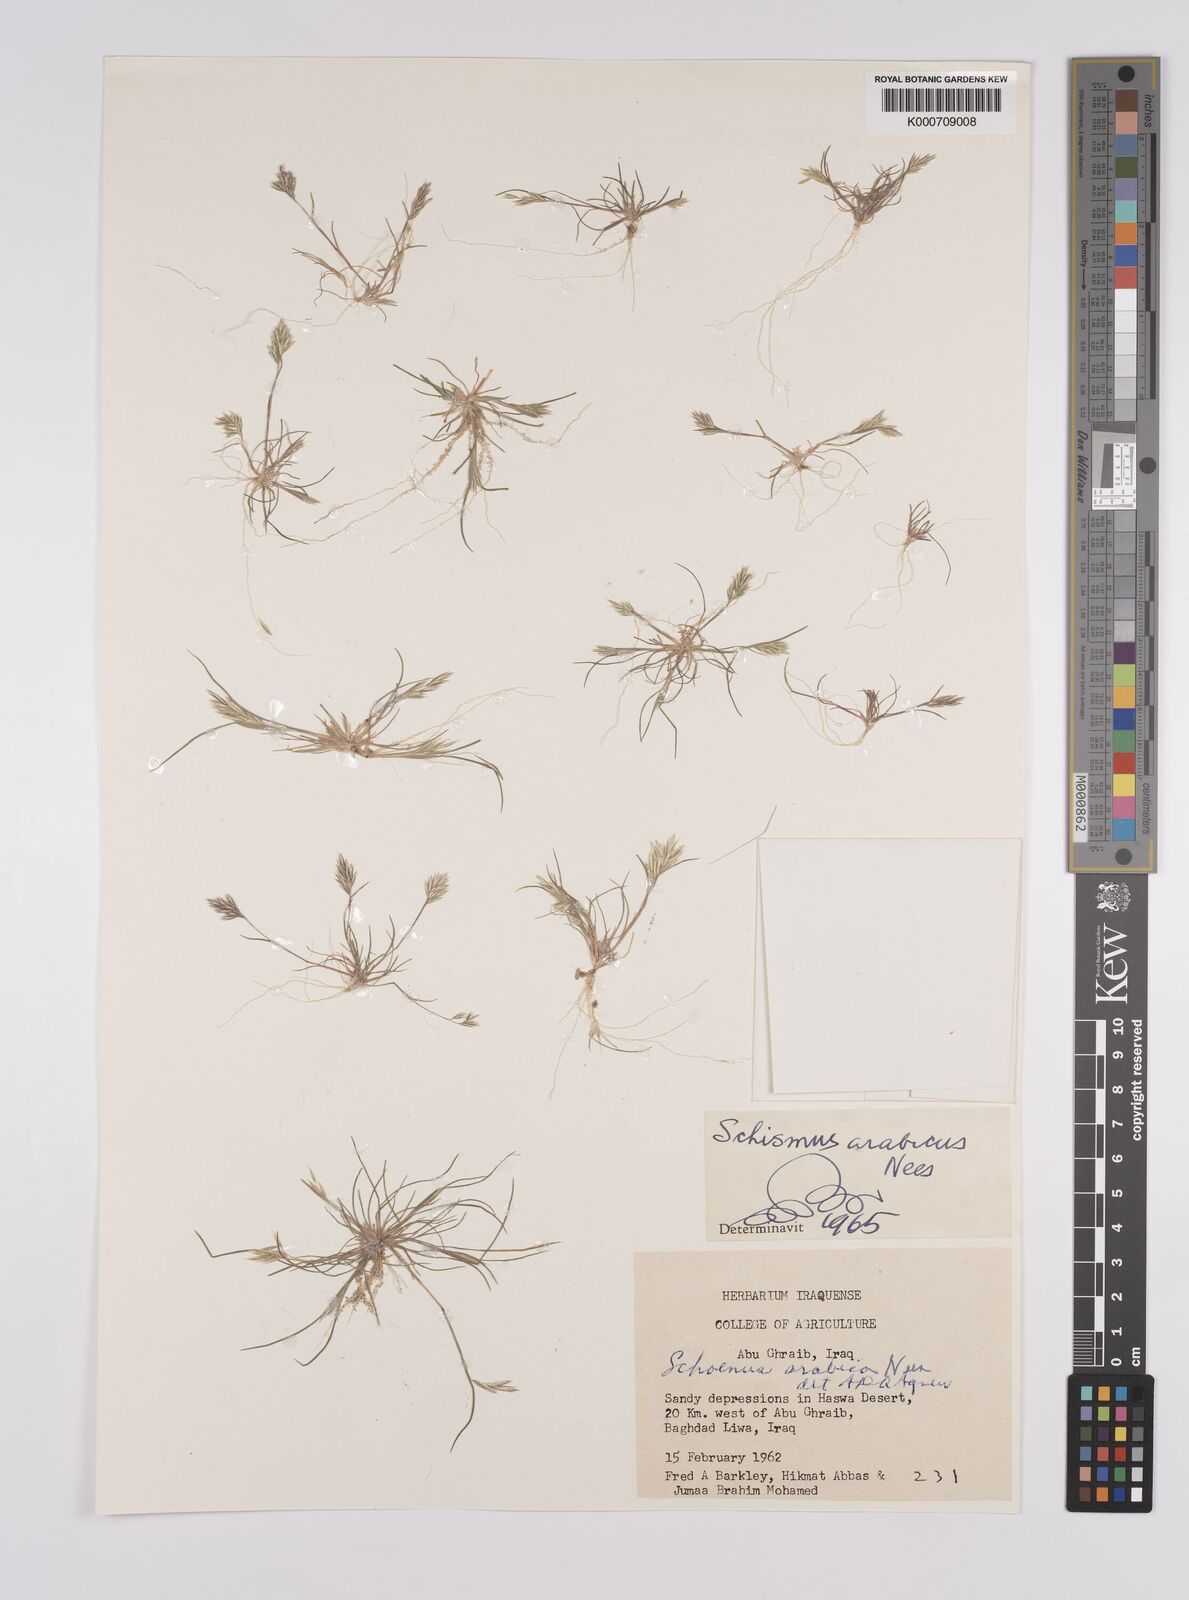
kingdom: Plantae
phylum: Tracheophyta
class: Liliopsida
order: Poales
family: Poaceae
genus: Schismus
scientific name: Schismus arabicus
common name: Arabian schismus
